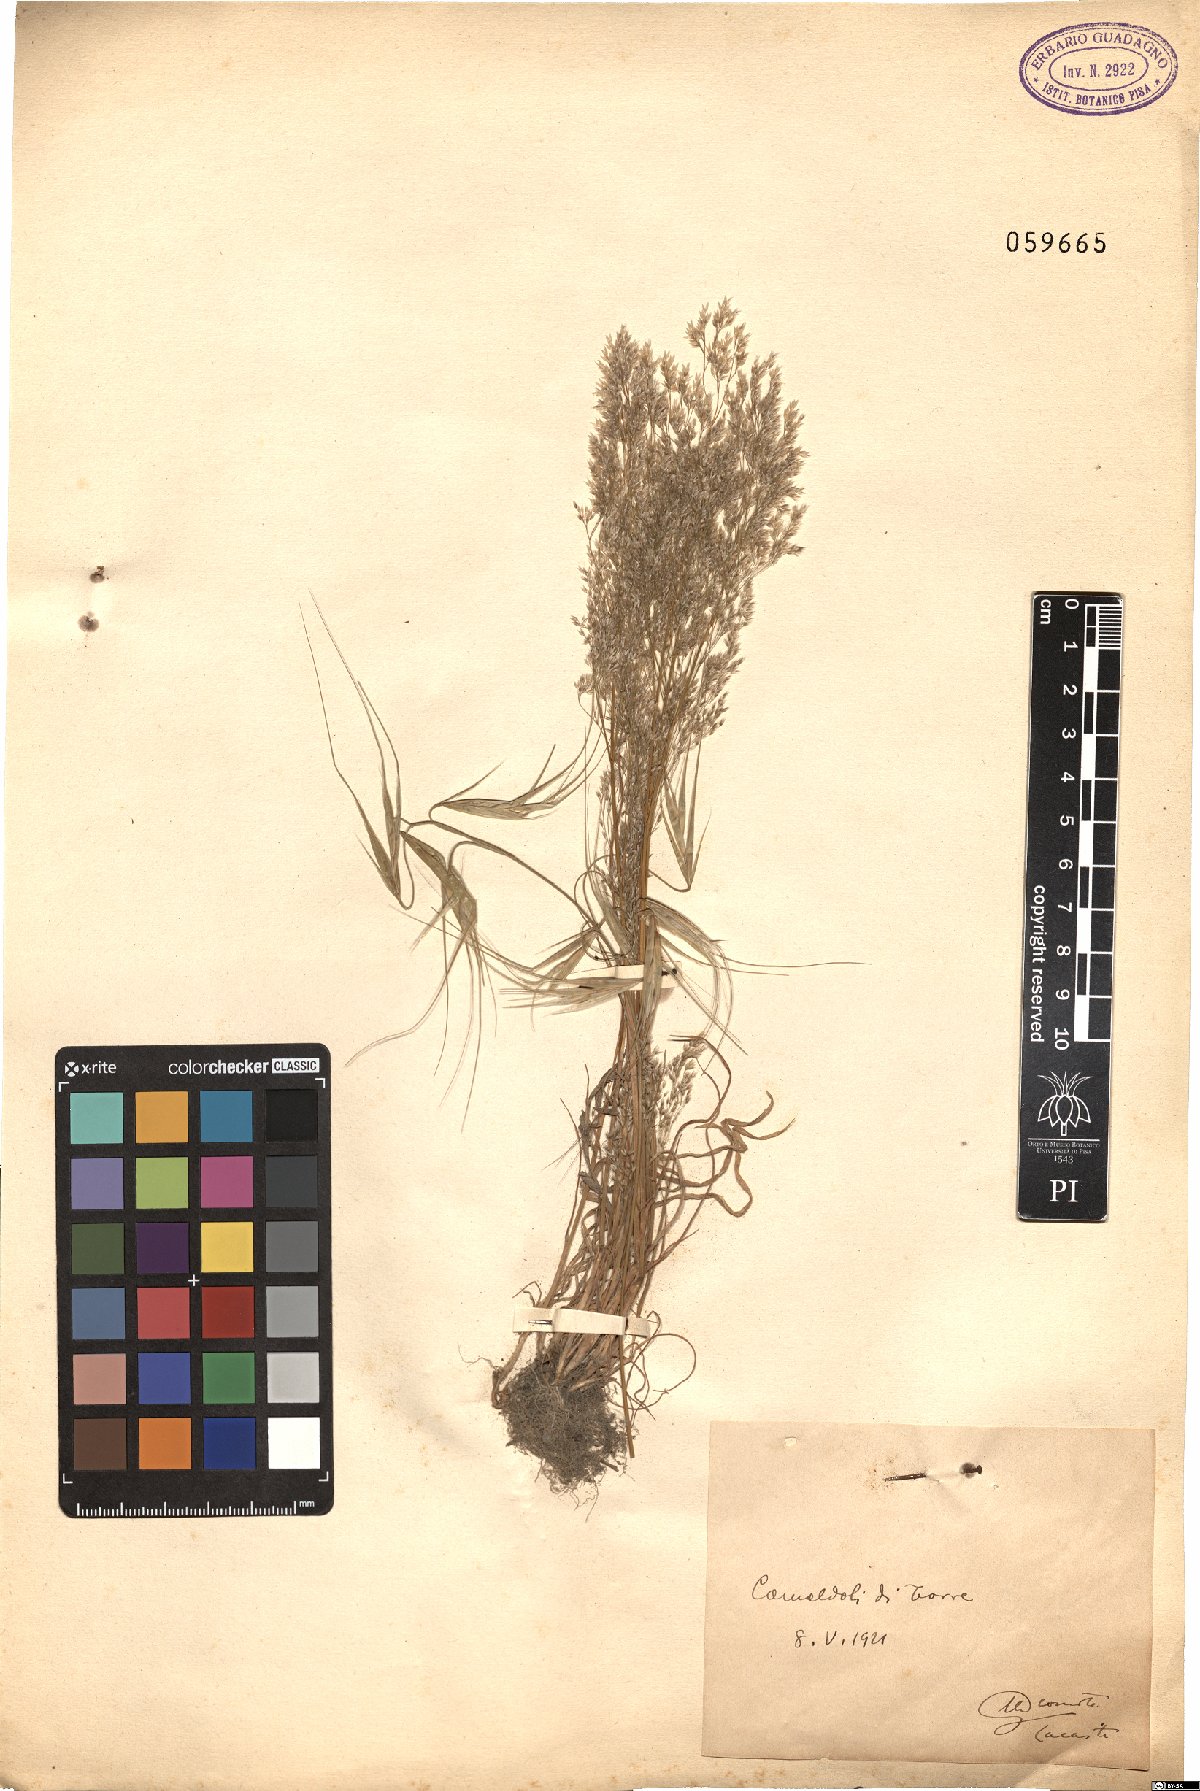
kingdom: Plantae
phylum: Tracheophyta
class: Liliopsida
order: Poales
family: Poaceae
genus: Aira
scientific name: Aira cupaniana
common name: Silver hairgrass
